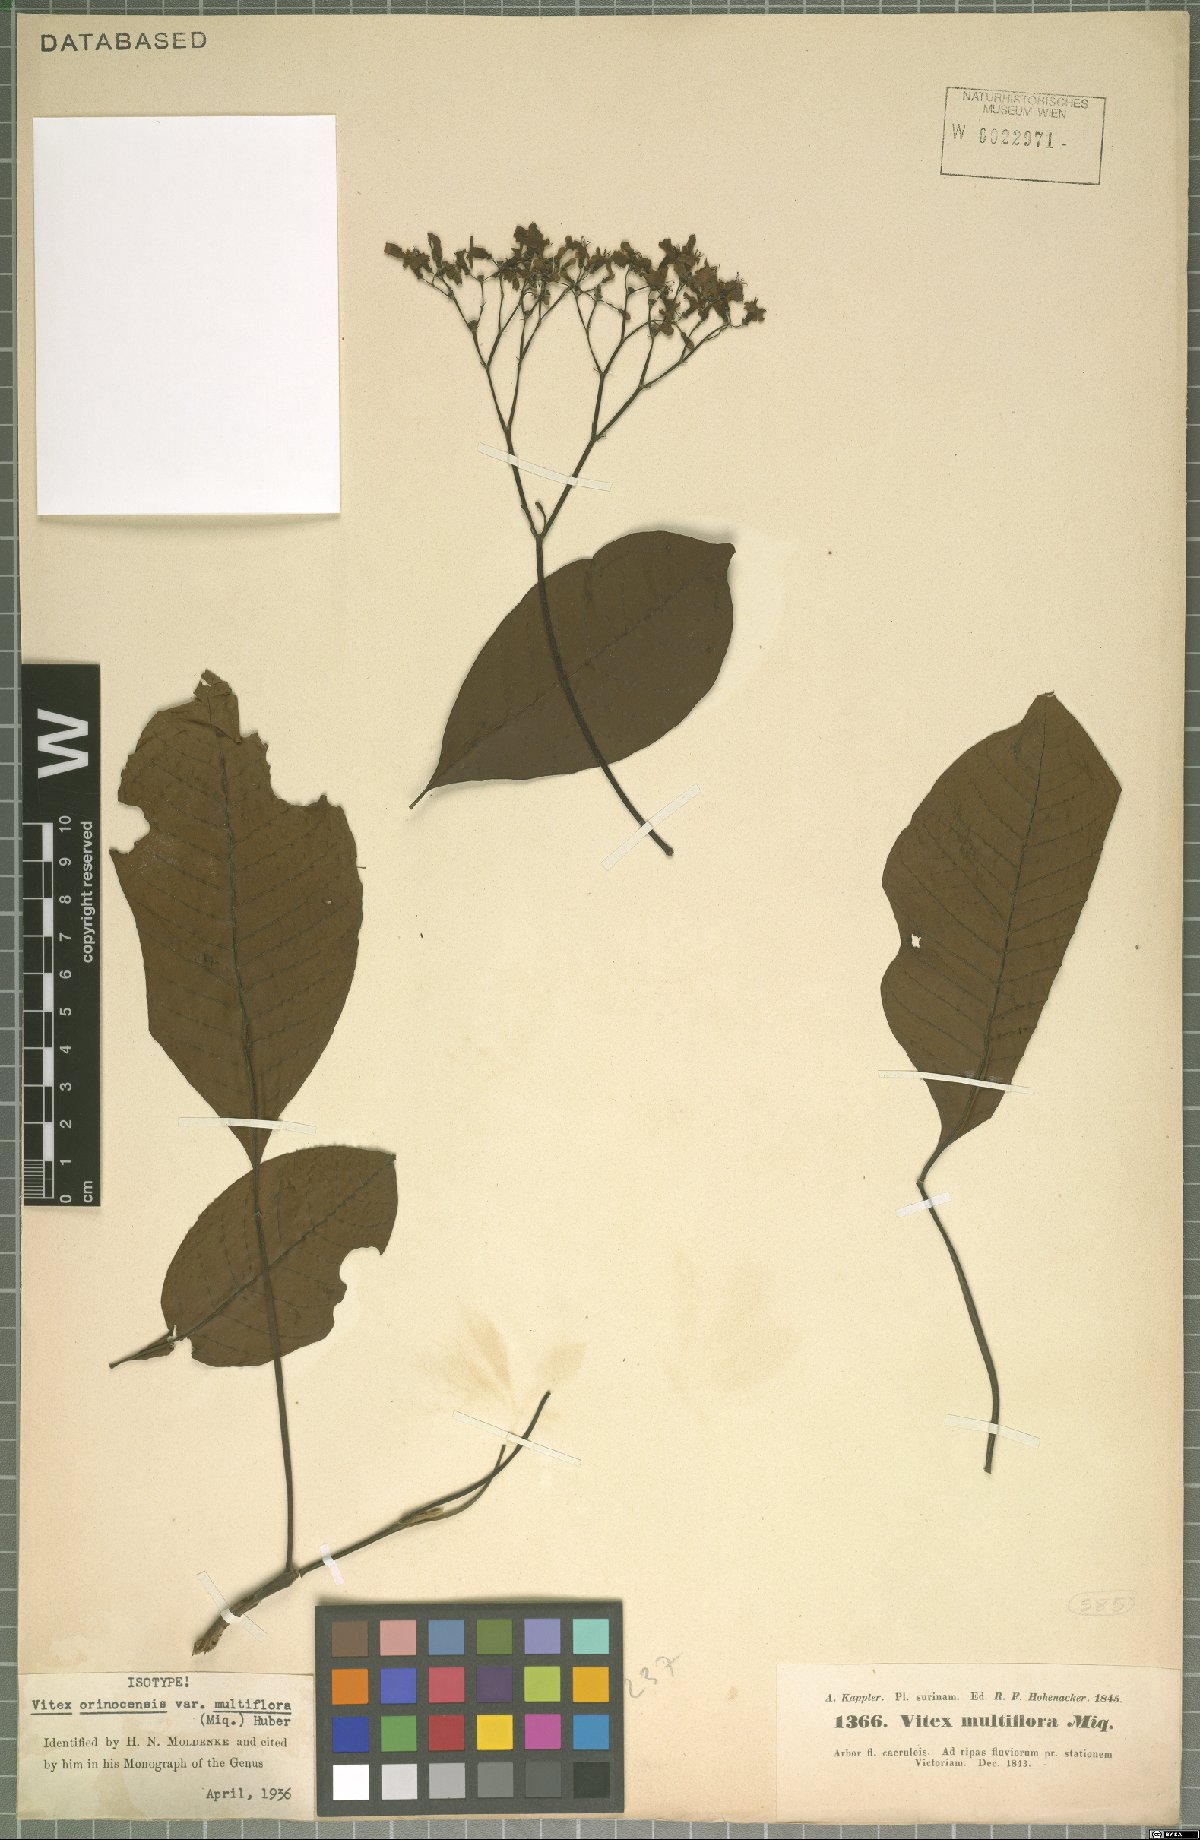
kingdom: Plantae
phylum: Tracheophyta
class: Magnoliopsida
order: Lamiales
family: Lamiaceae
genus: Vitex
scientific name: Vitex orinocensis
